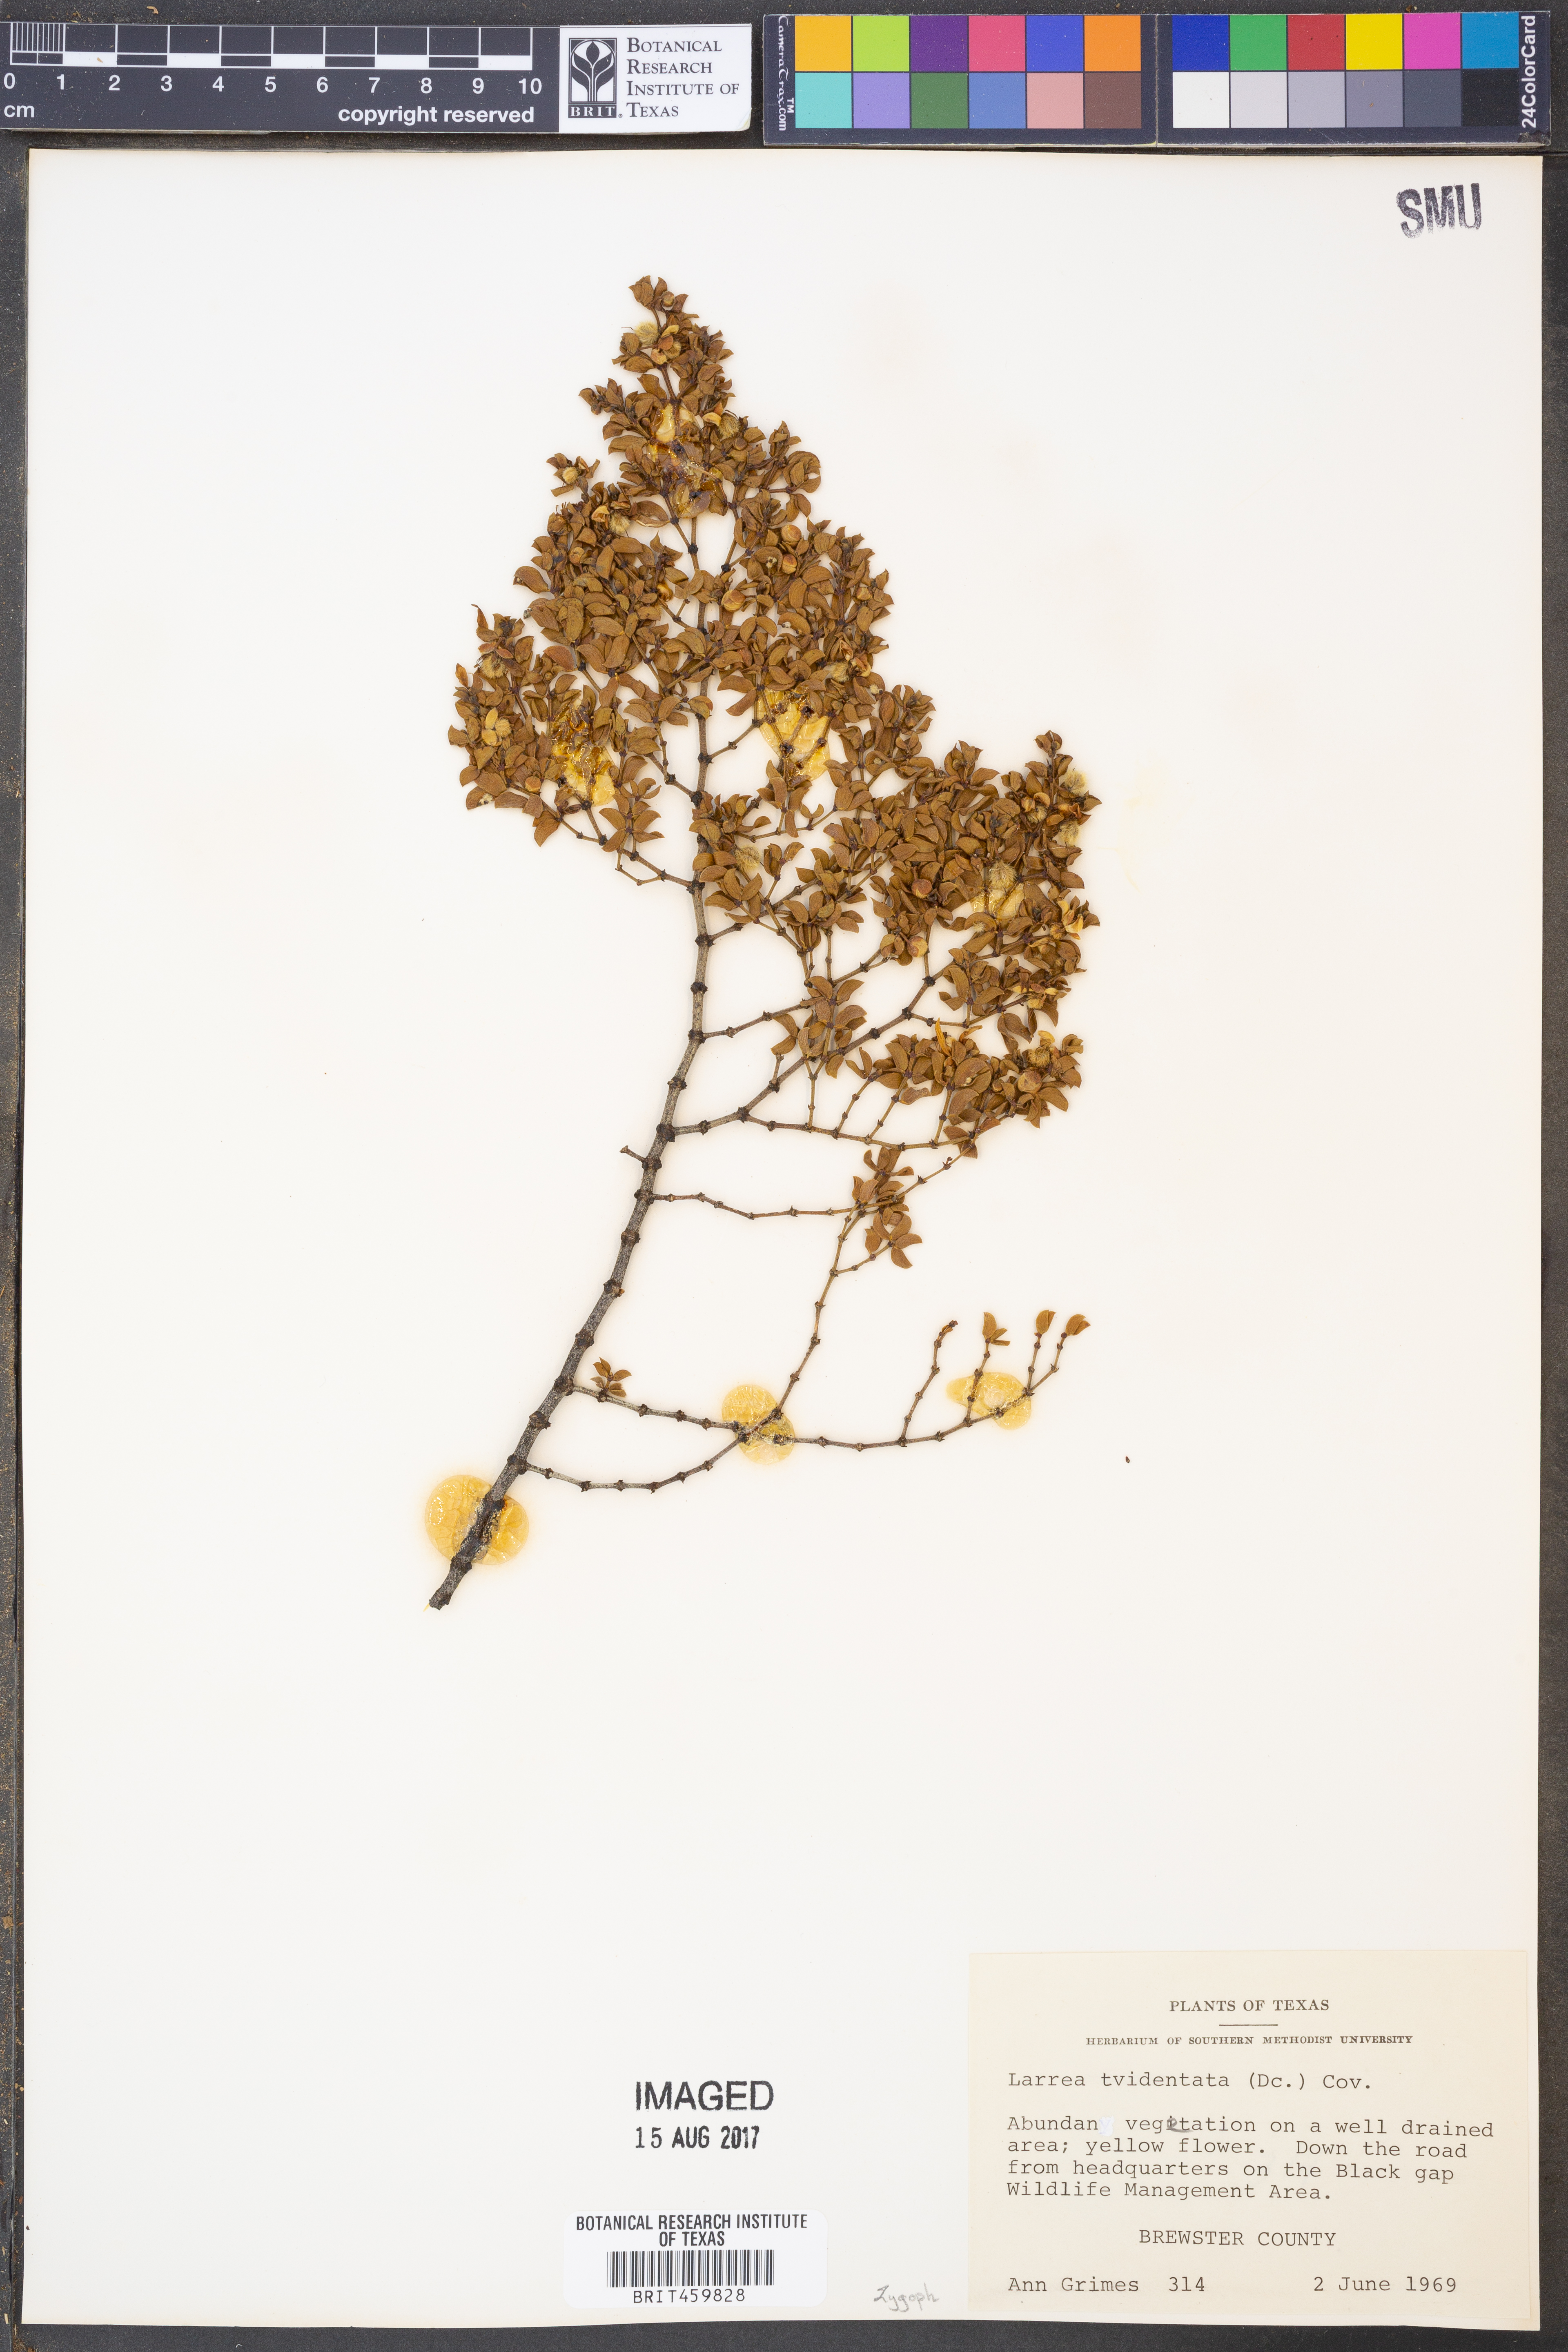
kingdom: Plantae
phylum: Tracheophyta
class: Magnoliopsida
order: Zygophyllales
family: Zygophyllaceae
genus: Larrea
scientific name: Larrea tridentata
